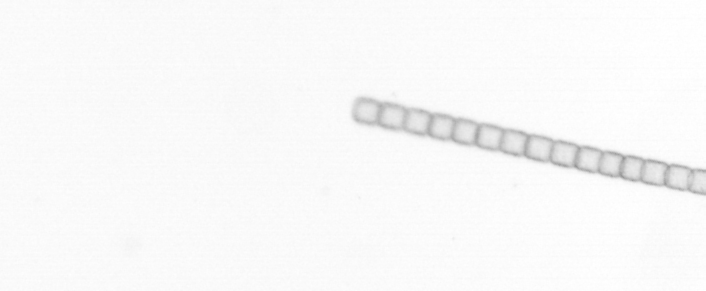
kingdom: Chromista
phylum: Ochrophyta
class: Bacillariophyceae
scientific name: Bacillariophyceae
